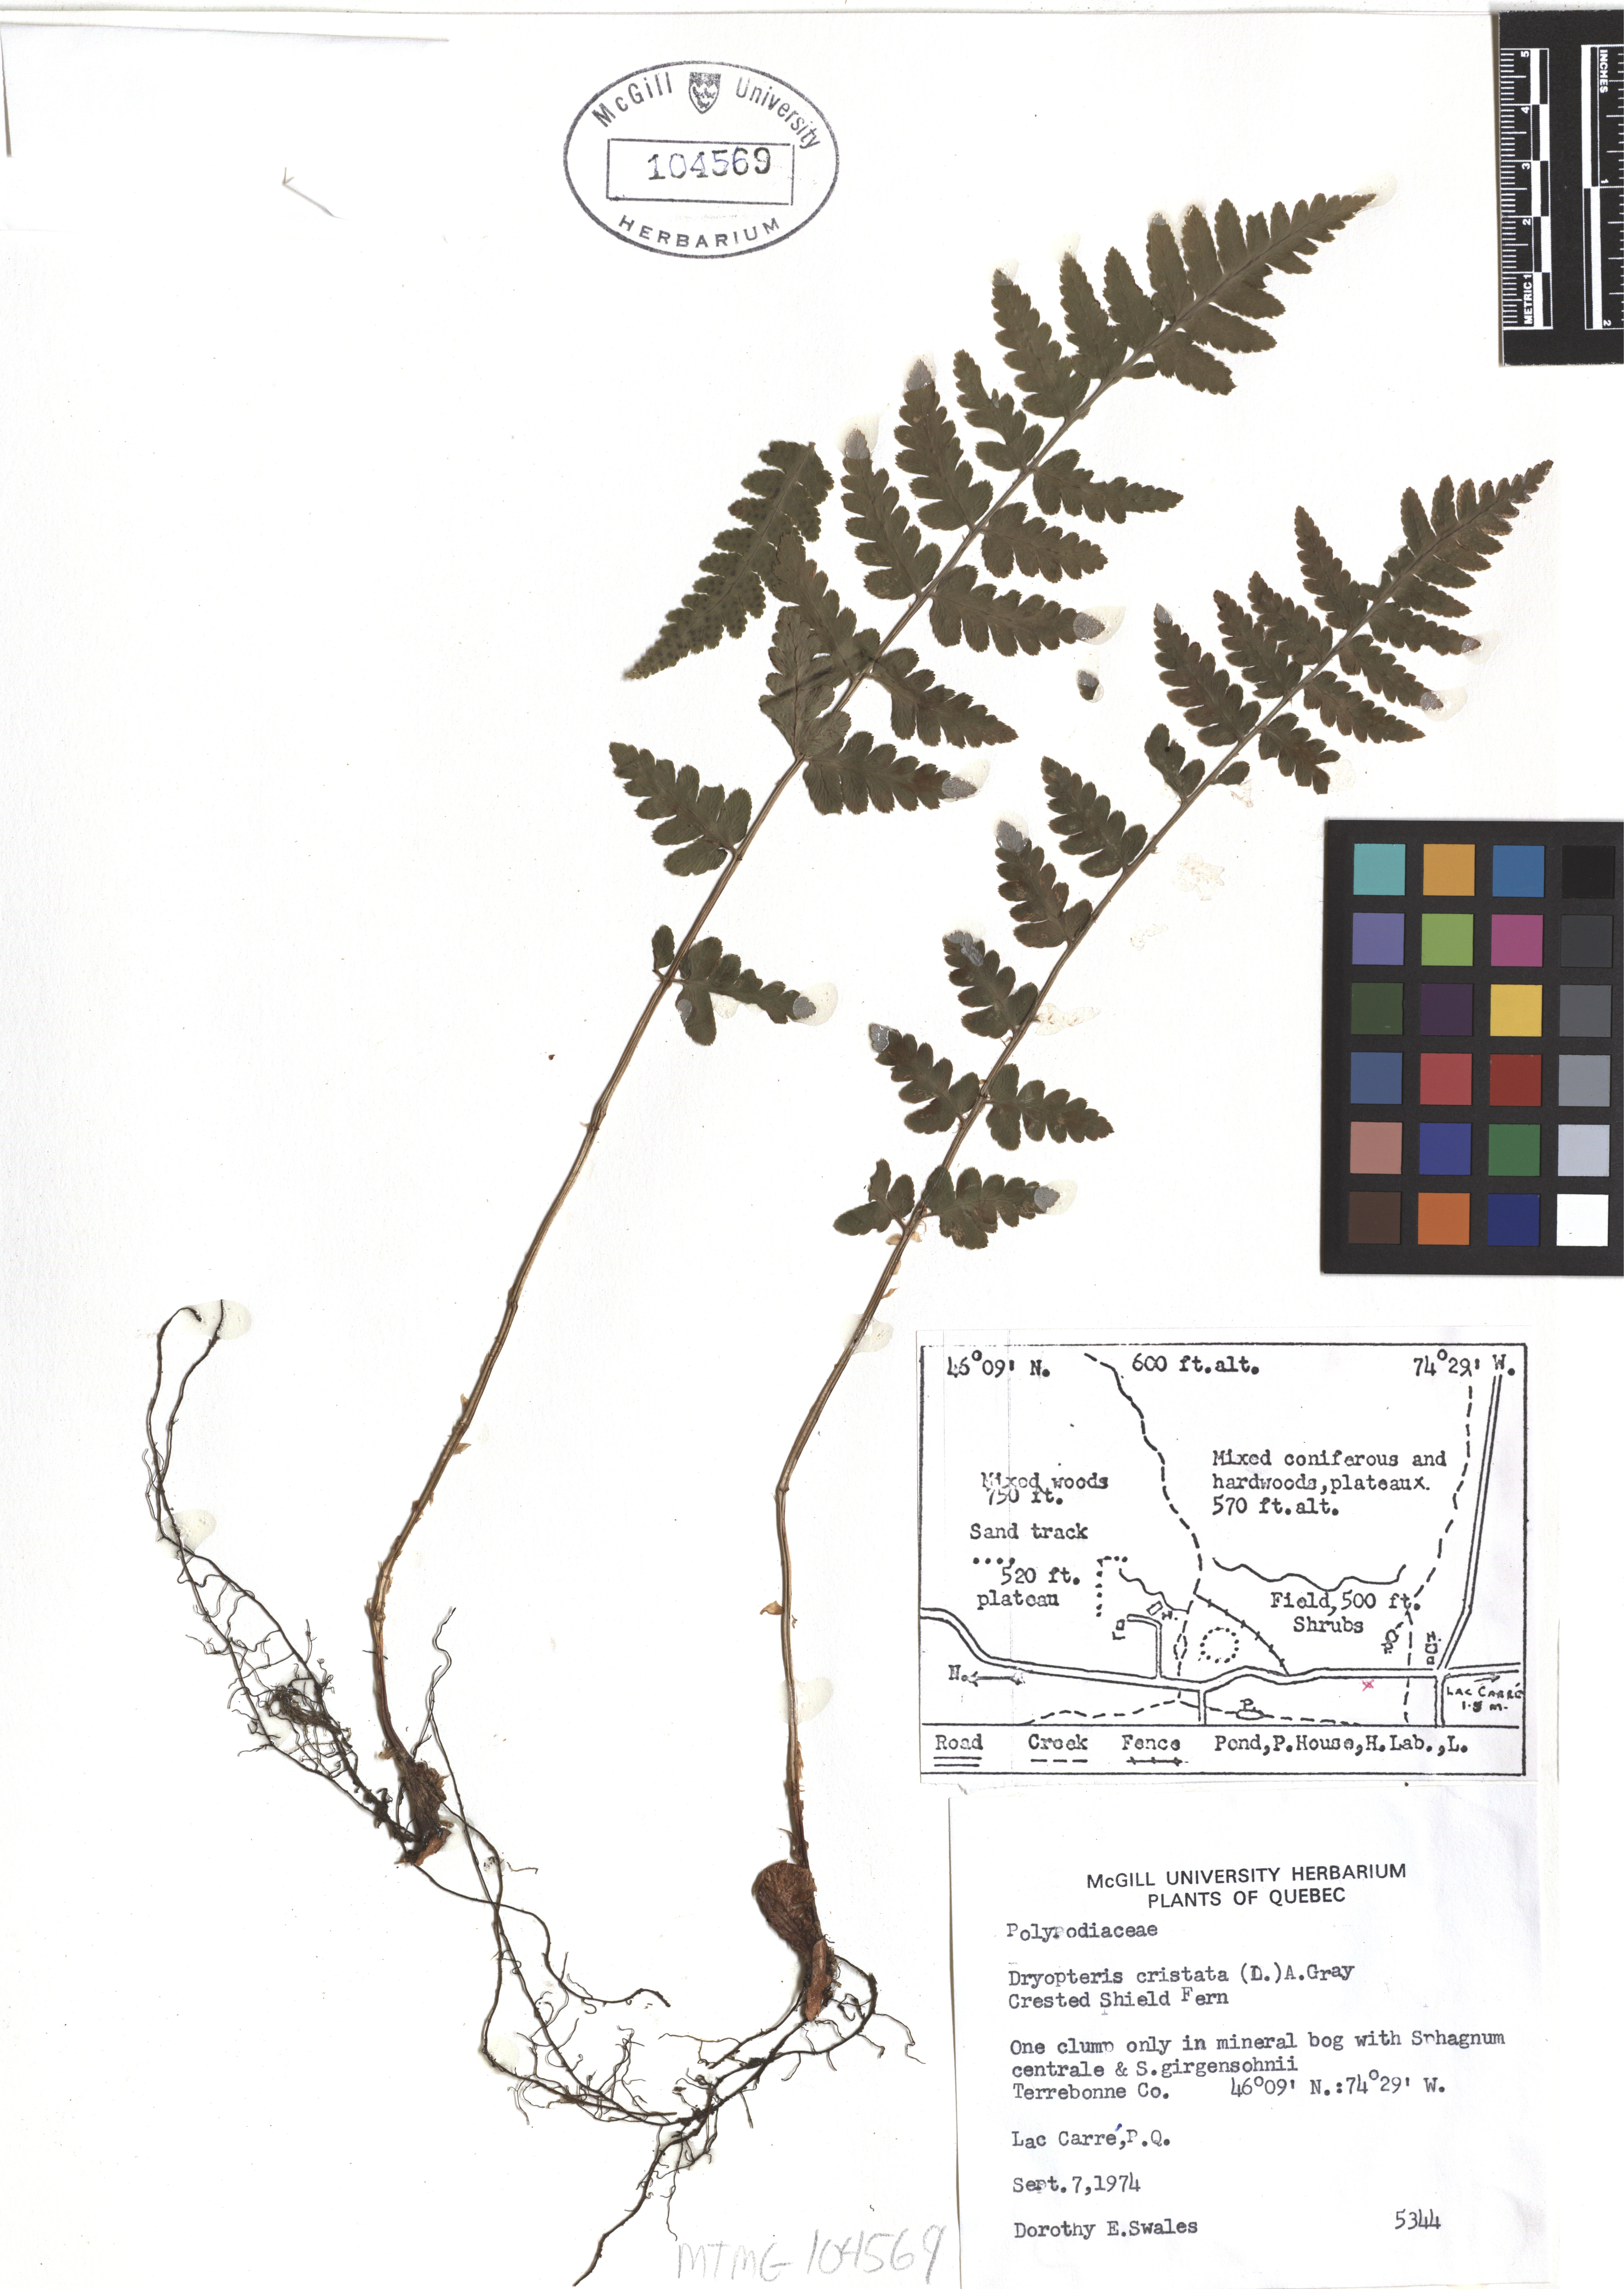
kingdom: Plantae
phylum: Tracheophyta
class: Polypodiopsida
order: Polypodiales
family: Dryopteridaceae
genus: Dryopteris
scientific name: Dryopteris cristata
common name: Crested wood fern
